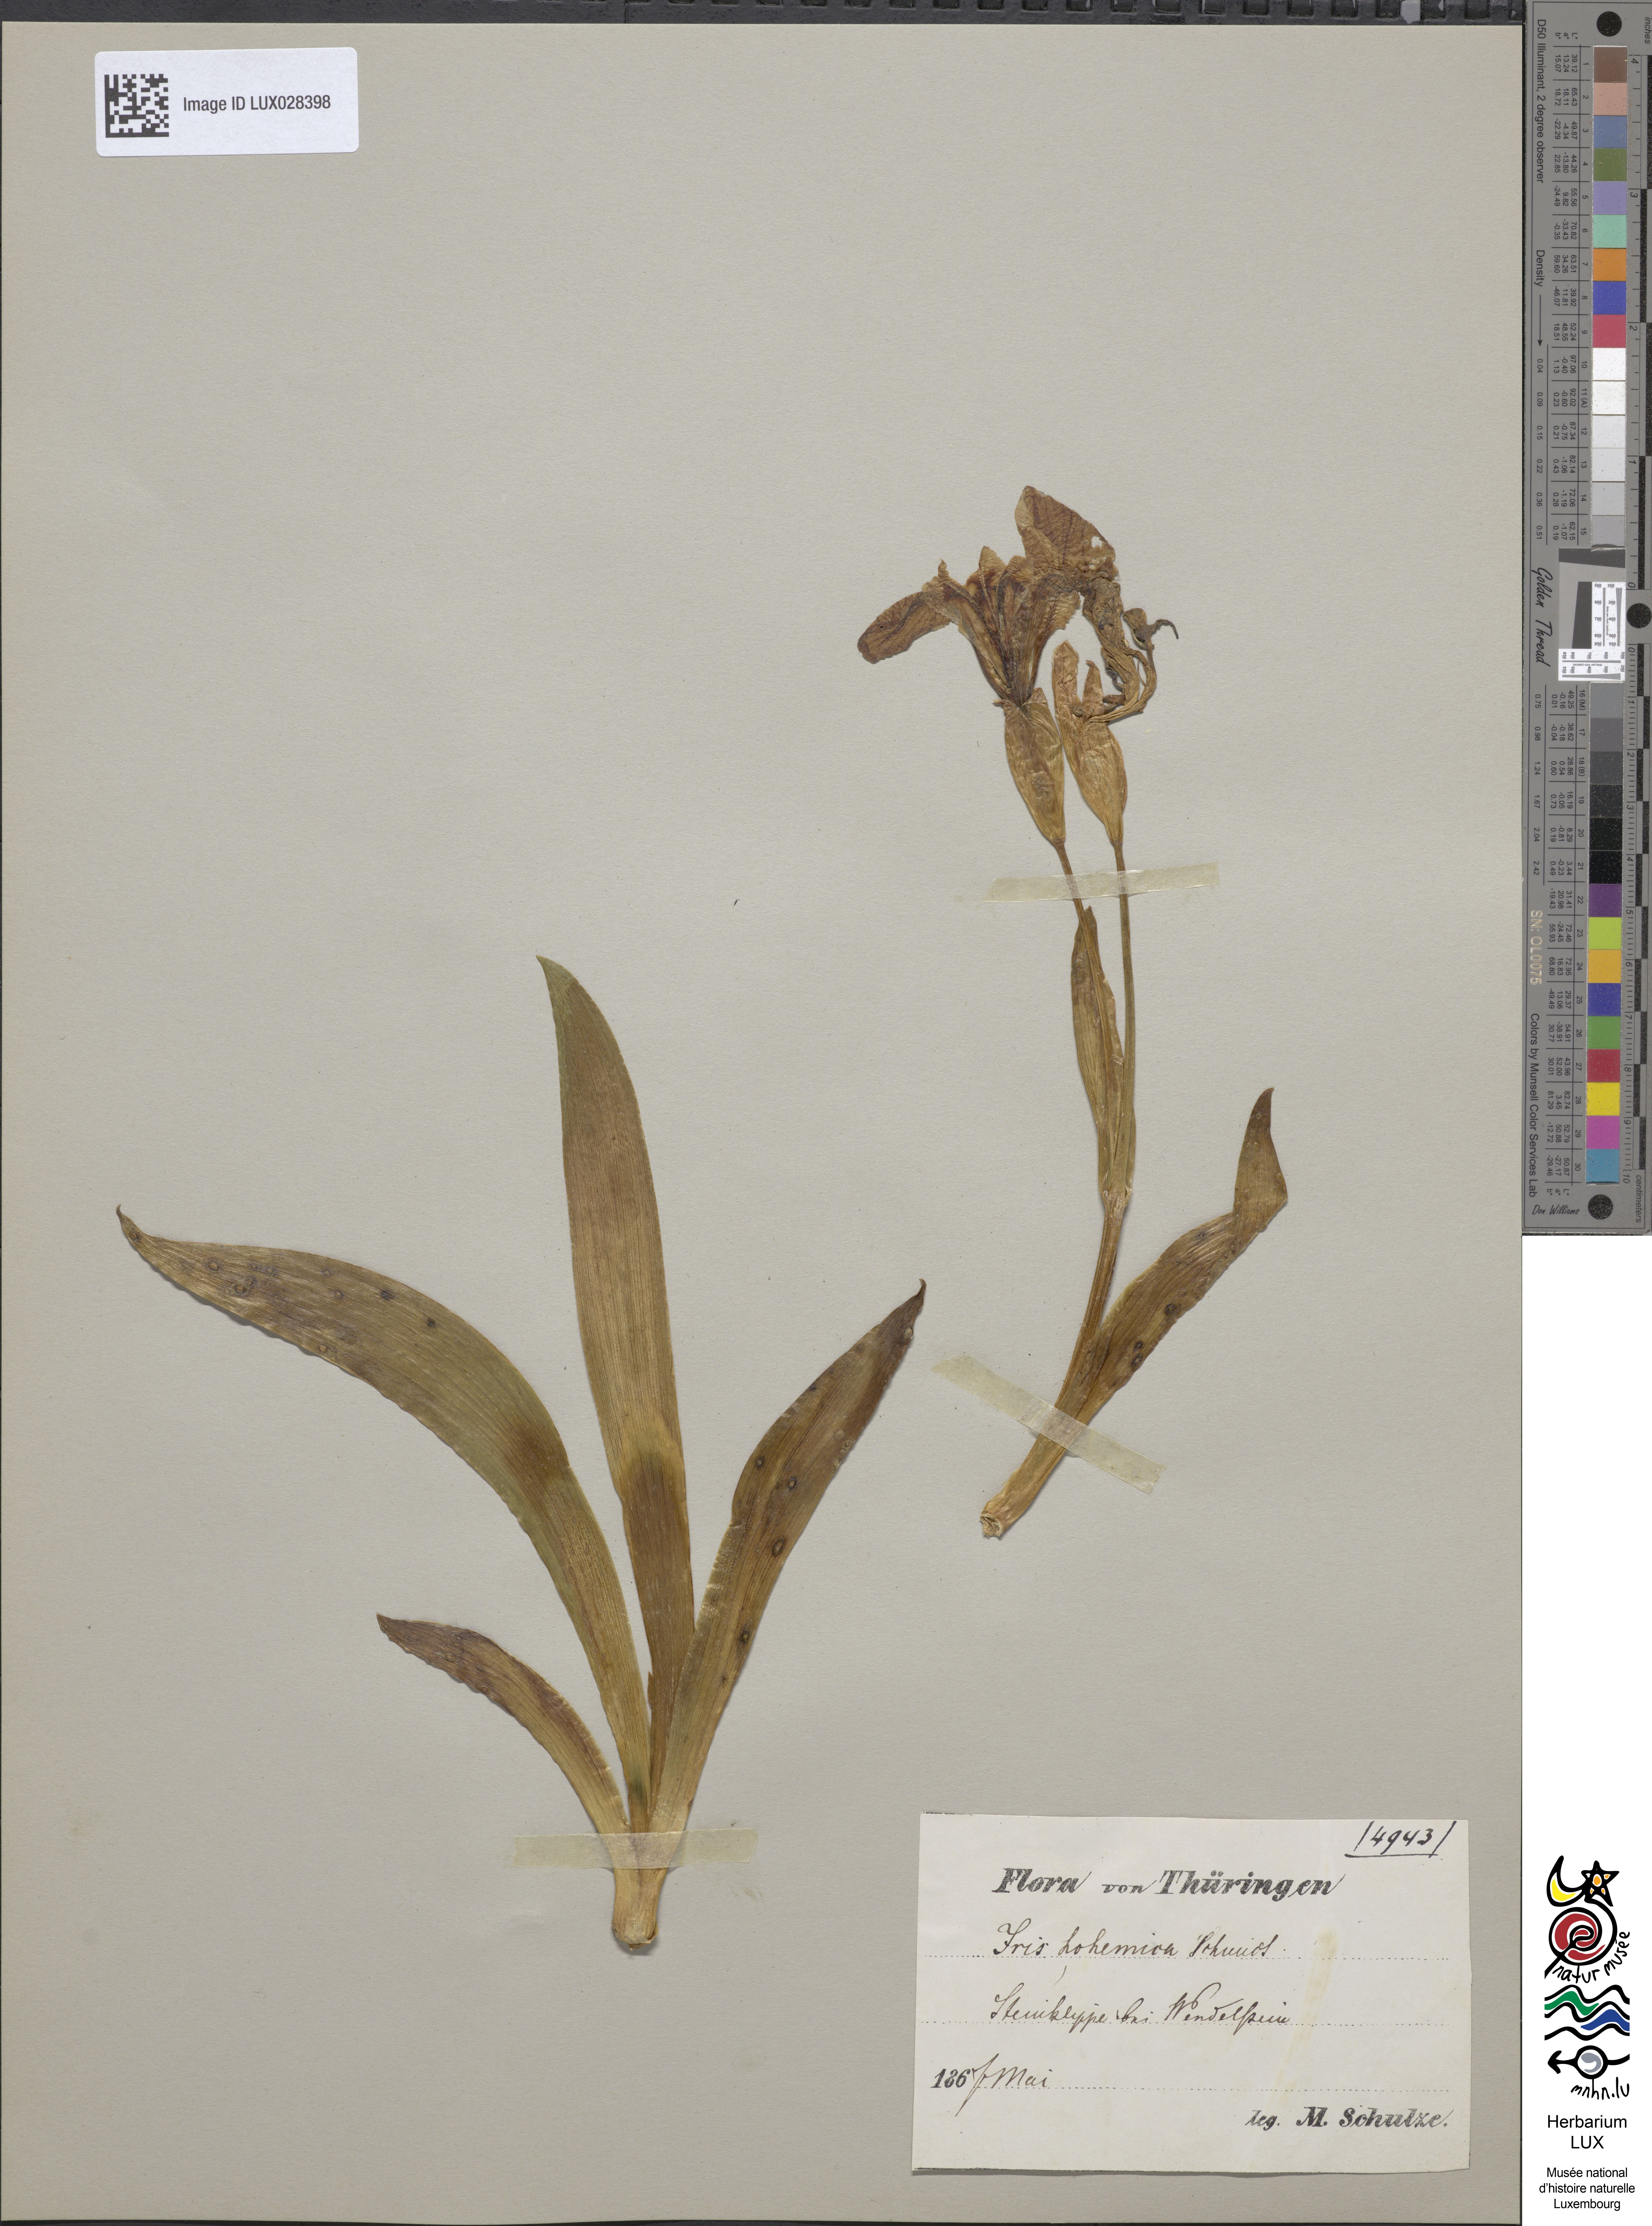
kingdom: Animalia
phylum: Arthropoda
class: Insecta
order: Mantodea
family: Eremiaphilidae
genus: Iris
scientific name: Iris
